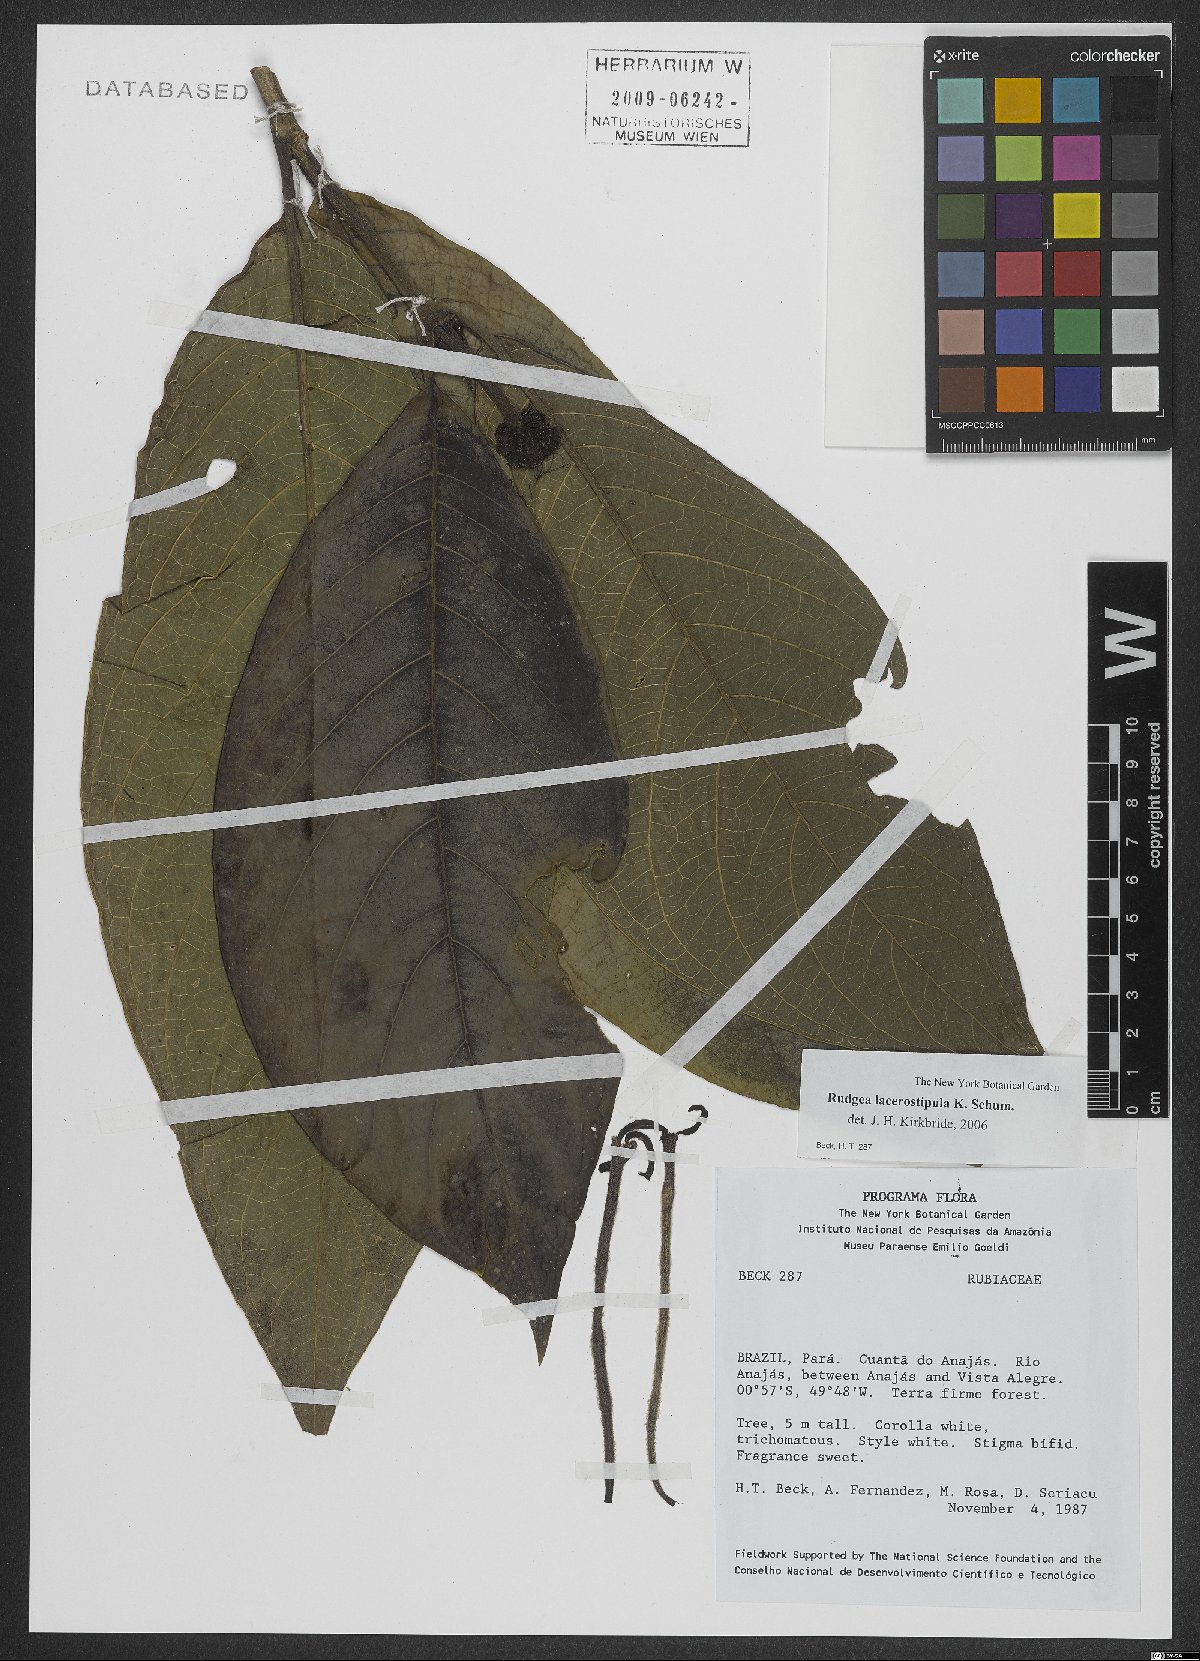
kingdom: Plantae
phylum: Tracheophyta
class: Magnoliopsida
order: Gentianales
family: Rubiaceae
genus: Rudgea
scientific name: Rudgea lacerostipula
